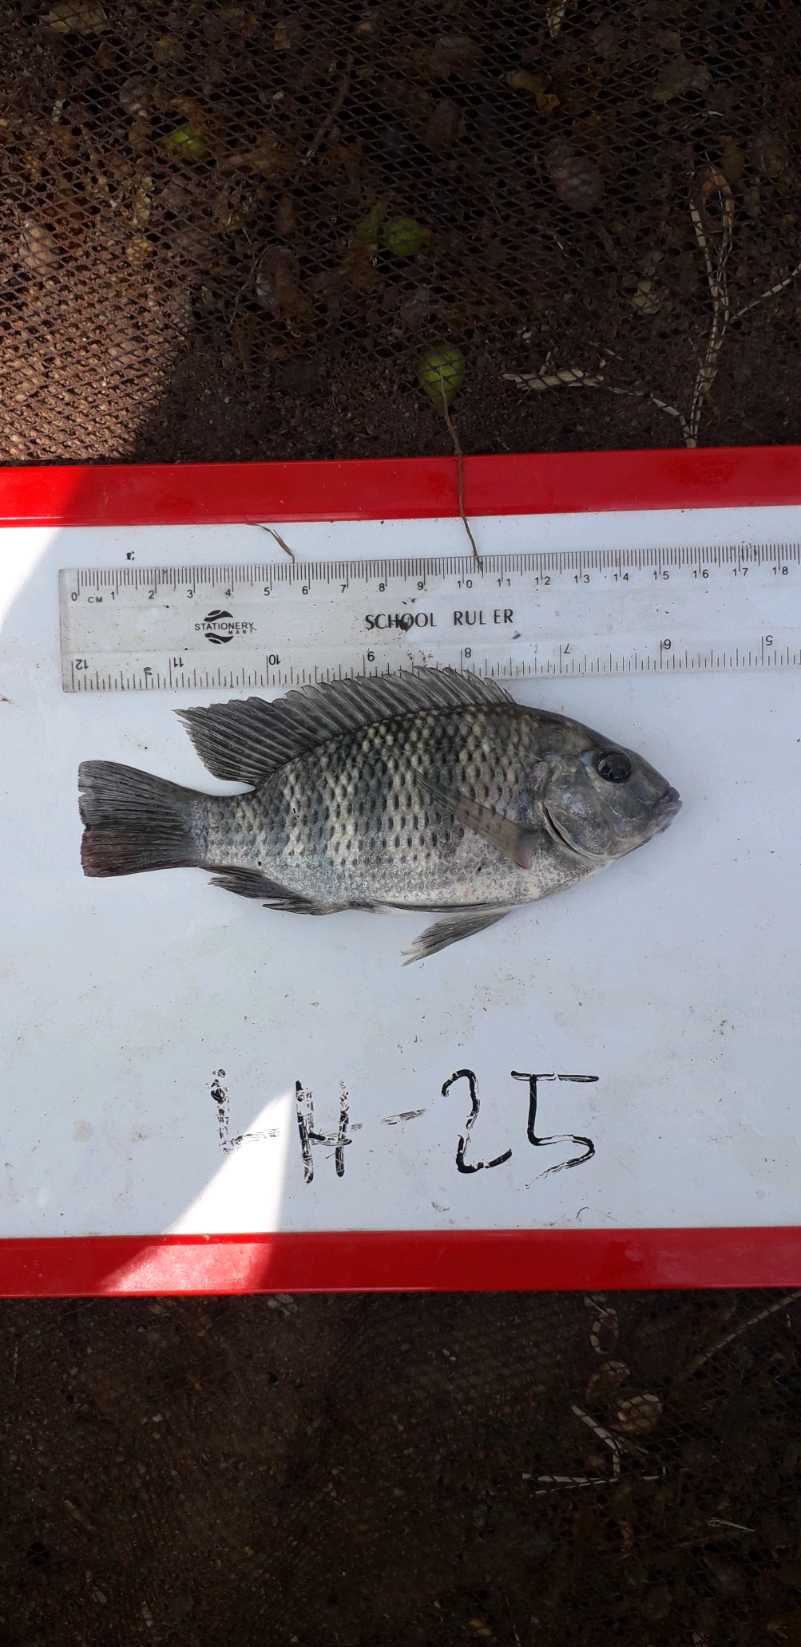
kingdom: Animalia
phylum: Chordata
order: Perciformes
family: Cichlidae
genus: Coptodon
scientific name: Coptodon rendalli
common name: Redbreast tilapia
